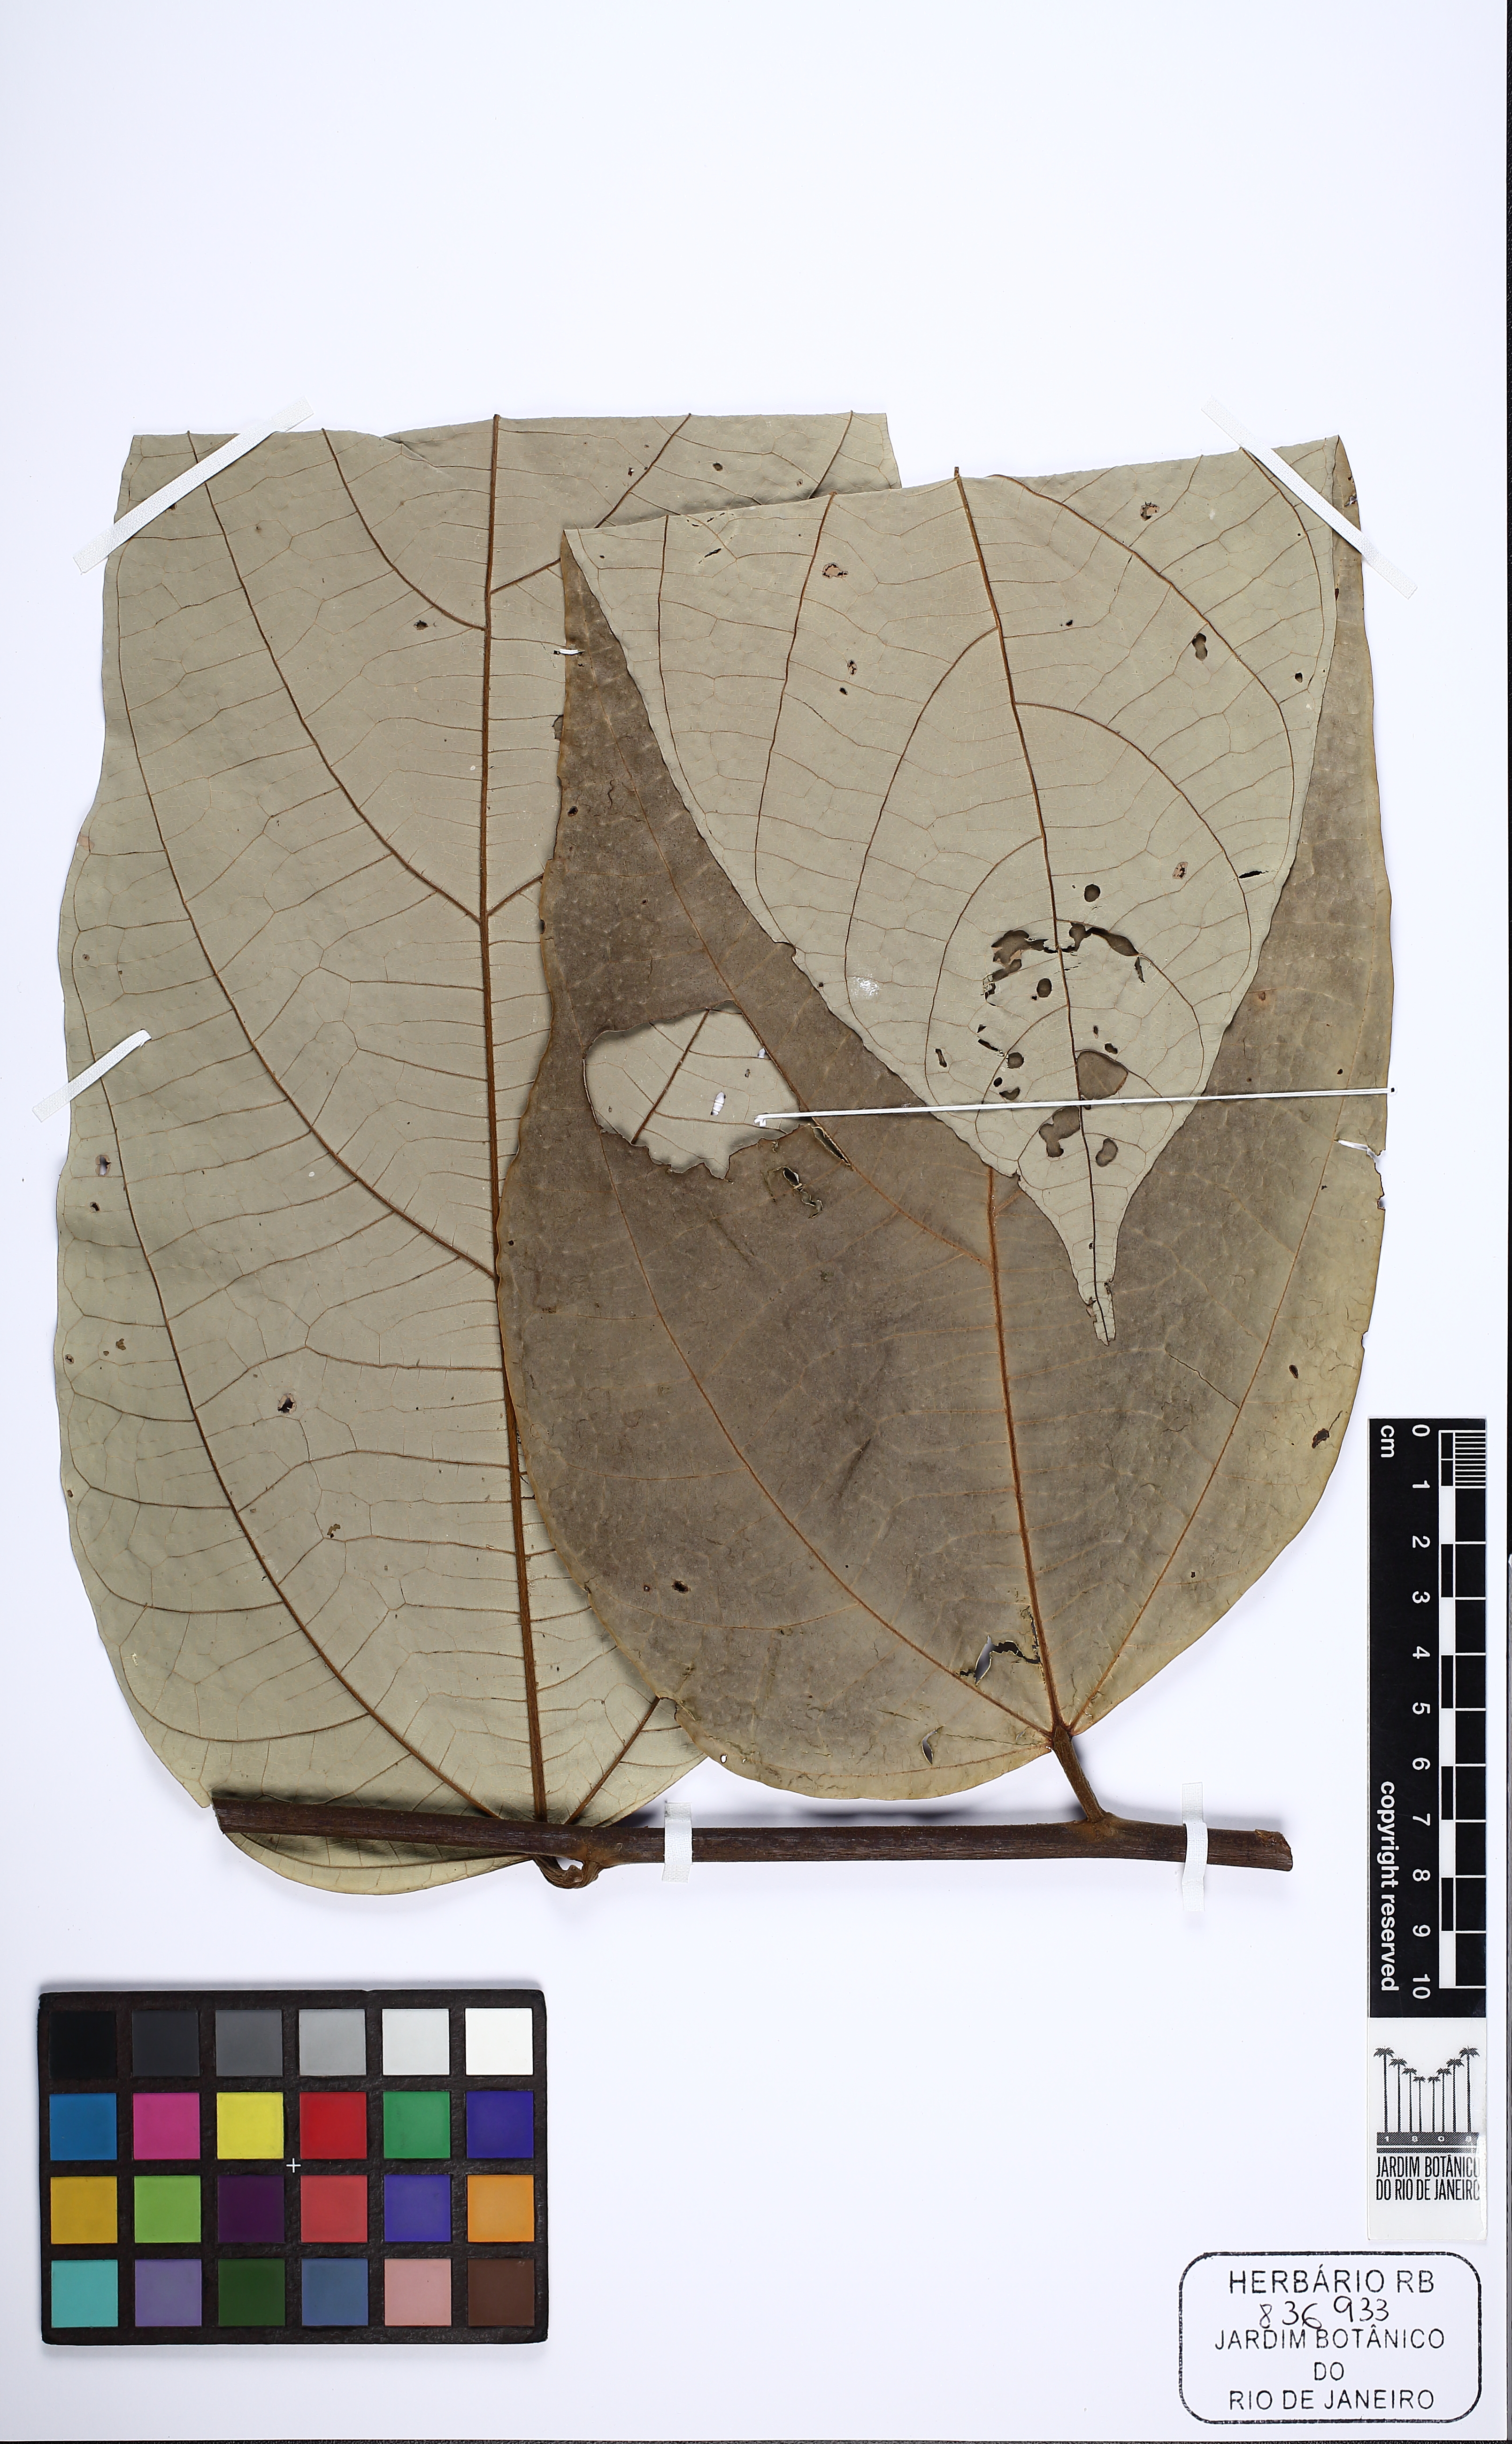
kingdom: Plantae
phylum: Tracheophyta
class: Magnoliopsida
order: Malvales
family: Malvaceae
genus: Theobroma
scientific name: Theobroma speciosum
